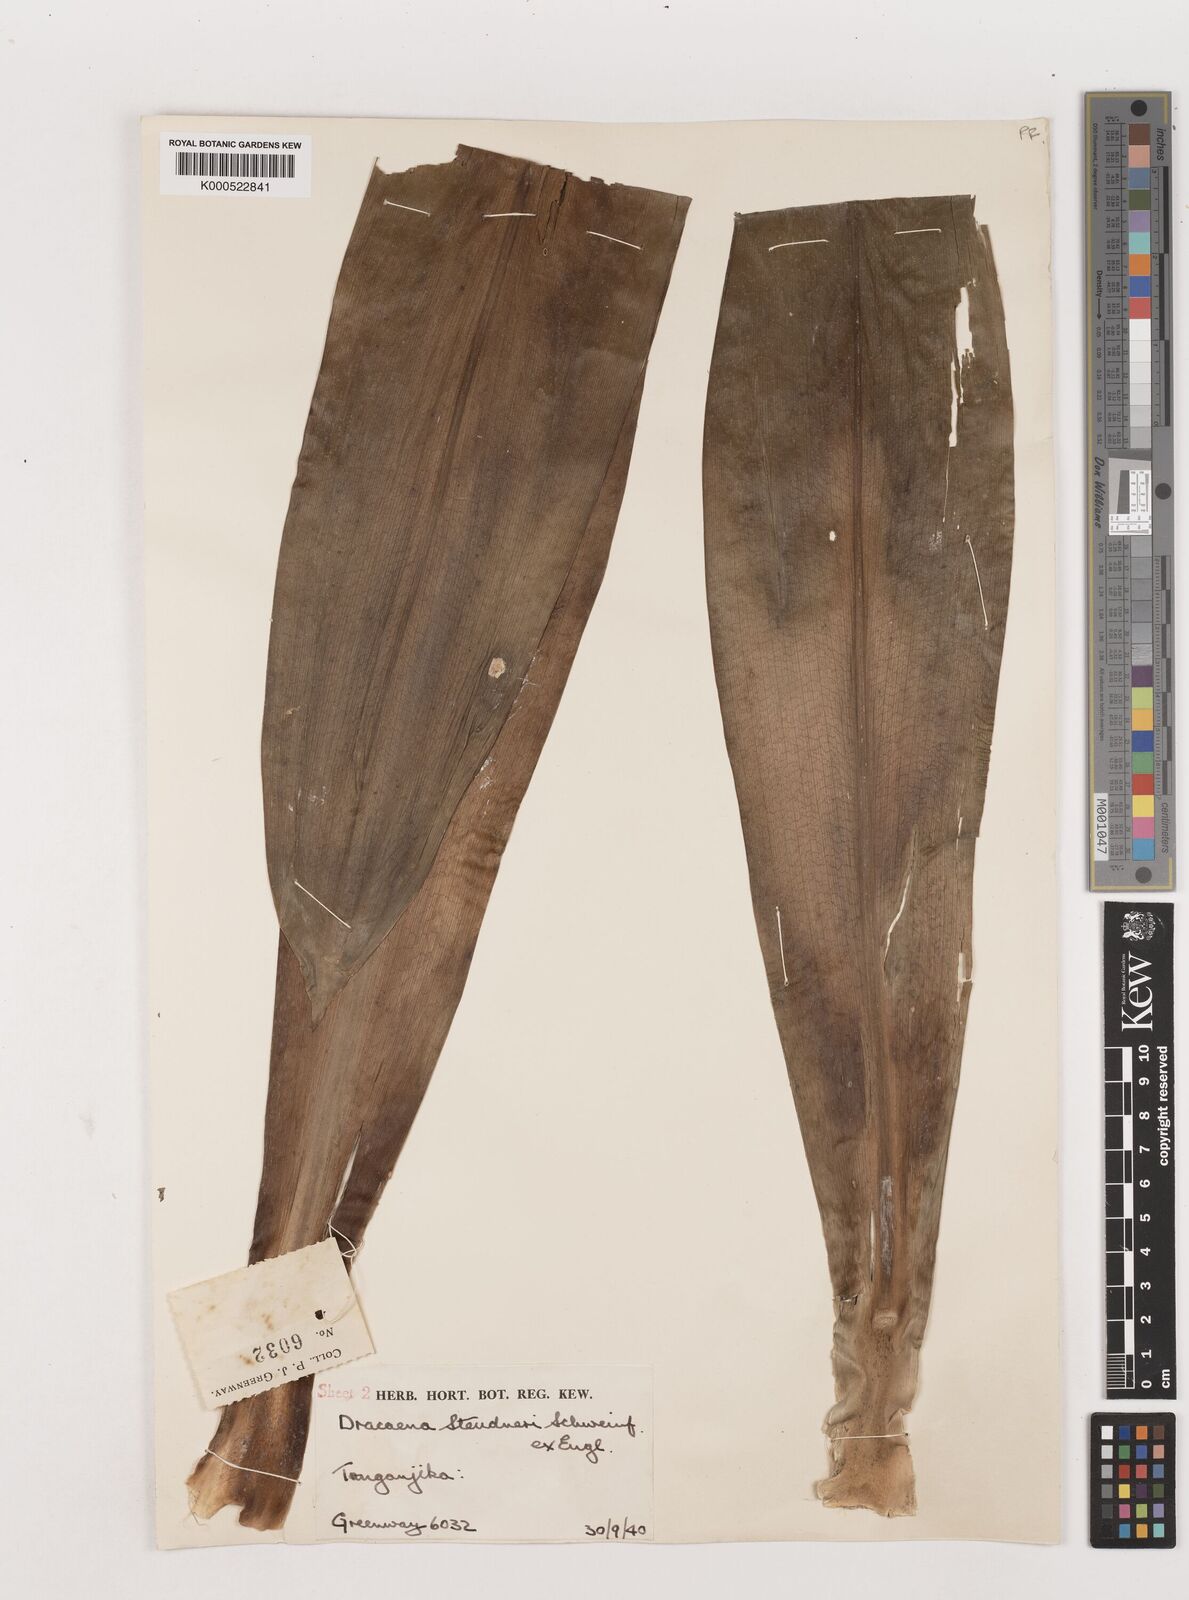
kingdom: Plantae
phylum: Tracheophyta
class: Liliopsida
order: Asparagales
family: Asparagaceae
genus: Dracaena
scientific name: Dracaena steudneri
